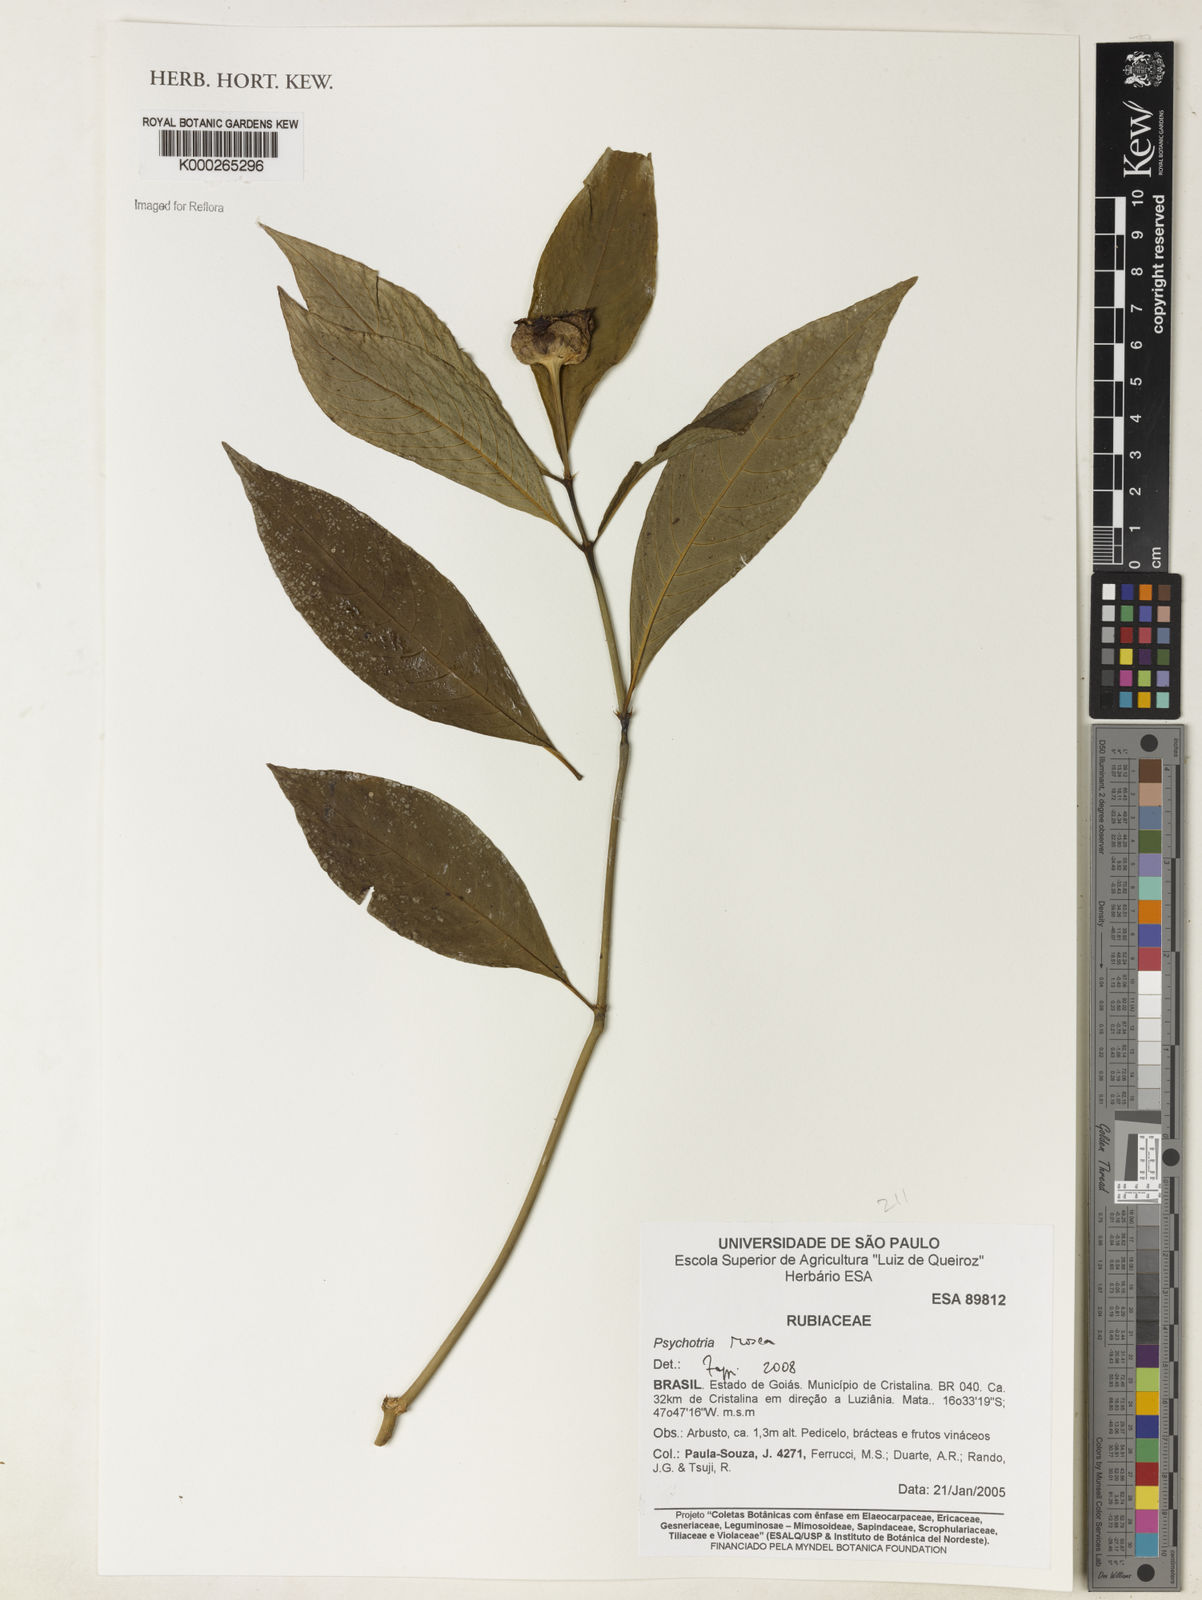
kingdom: Plantae
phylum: Tracheophyta
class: Magnoliopsida
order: Gentianales
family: Rubiaceae
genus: Psychotria
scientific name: Psychotria
